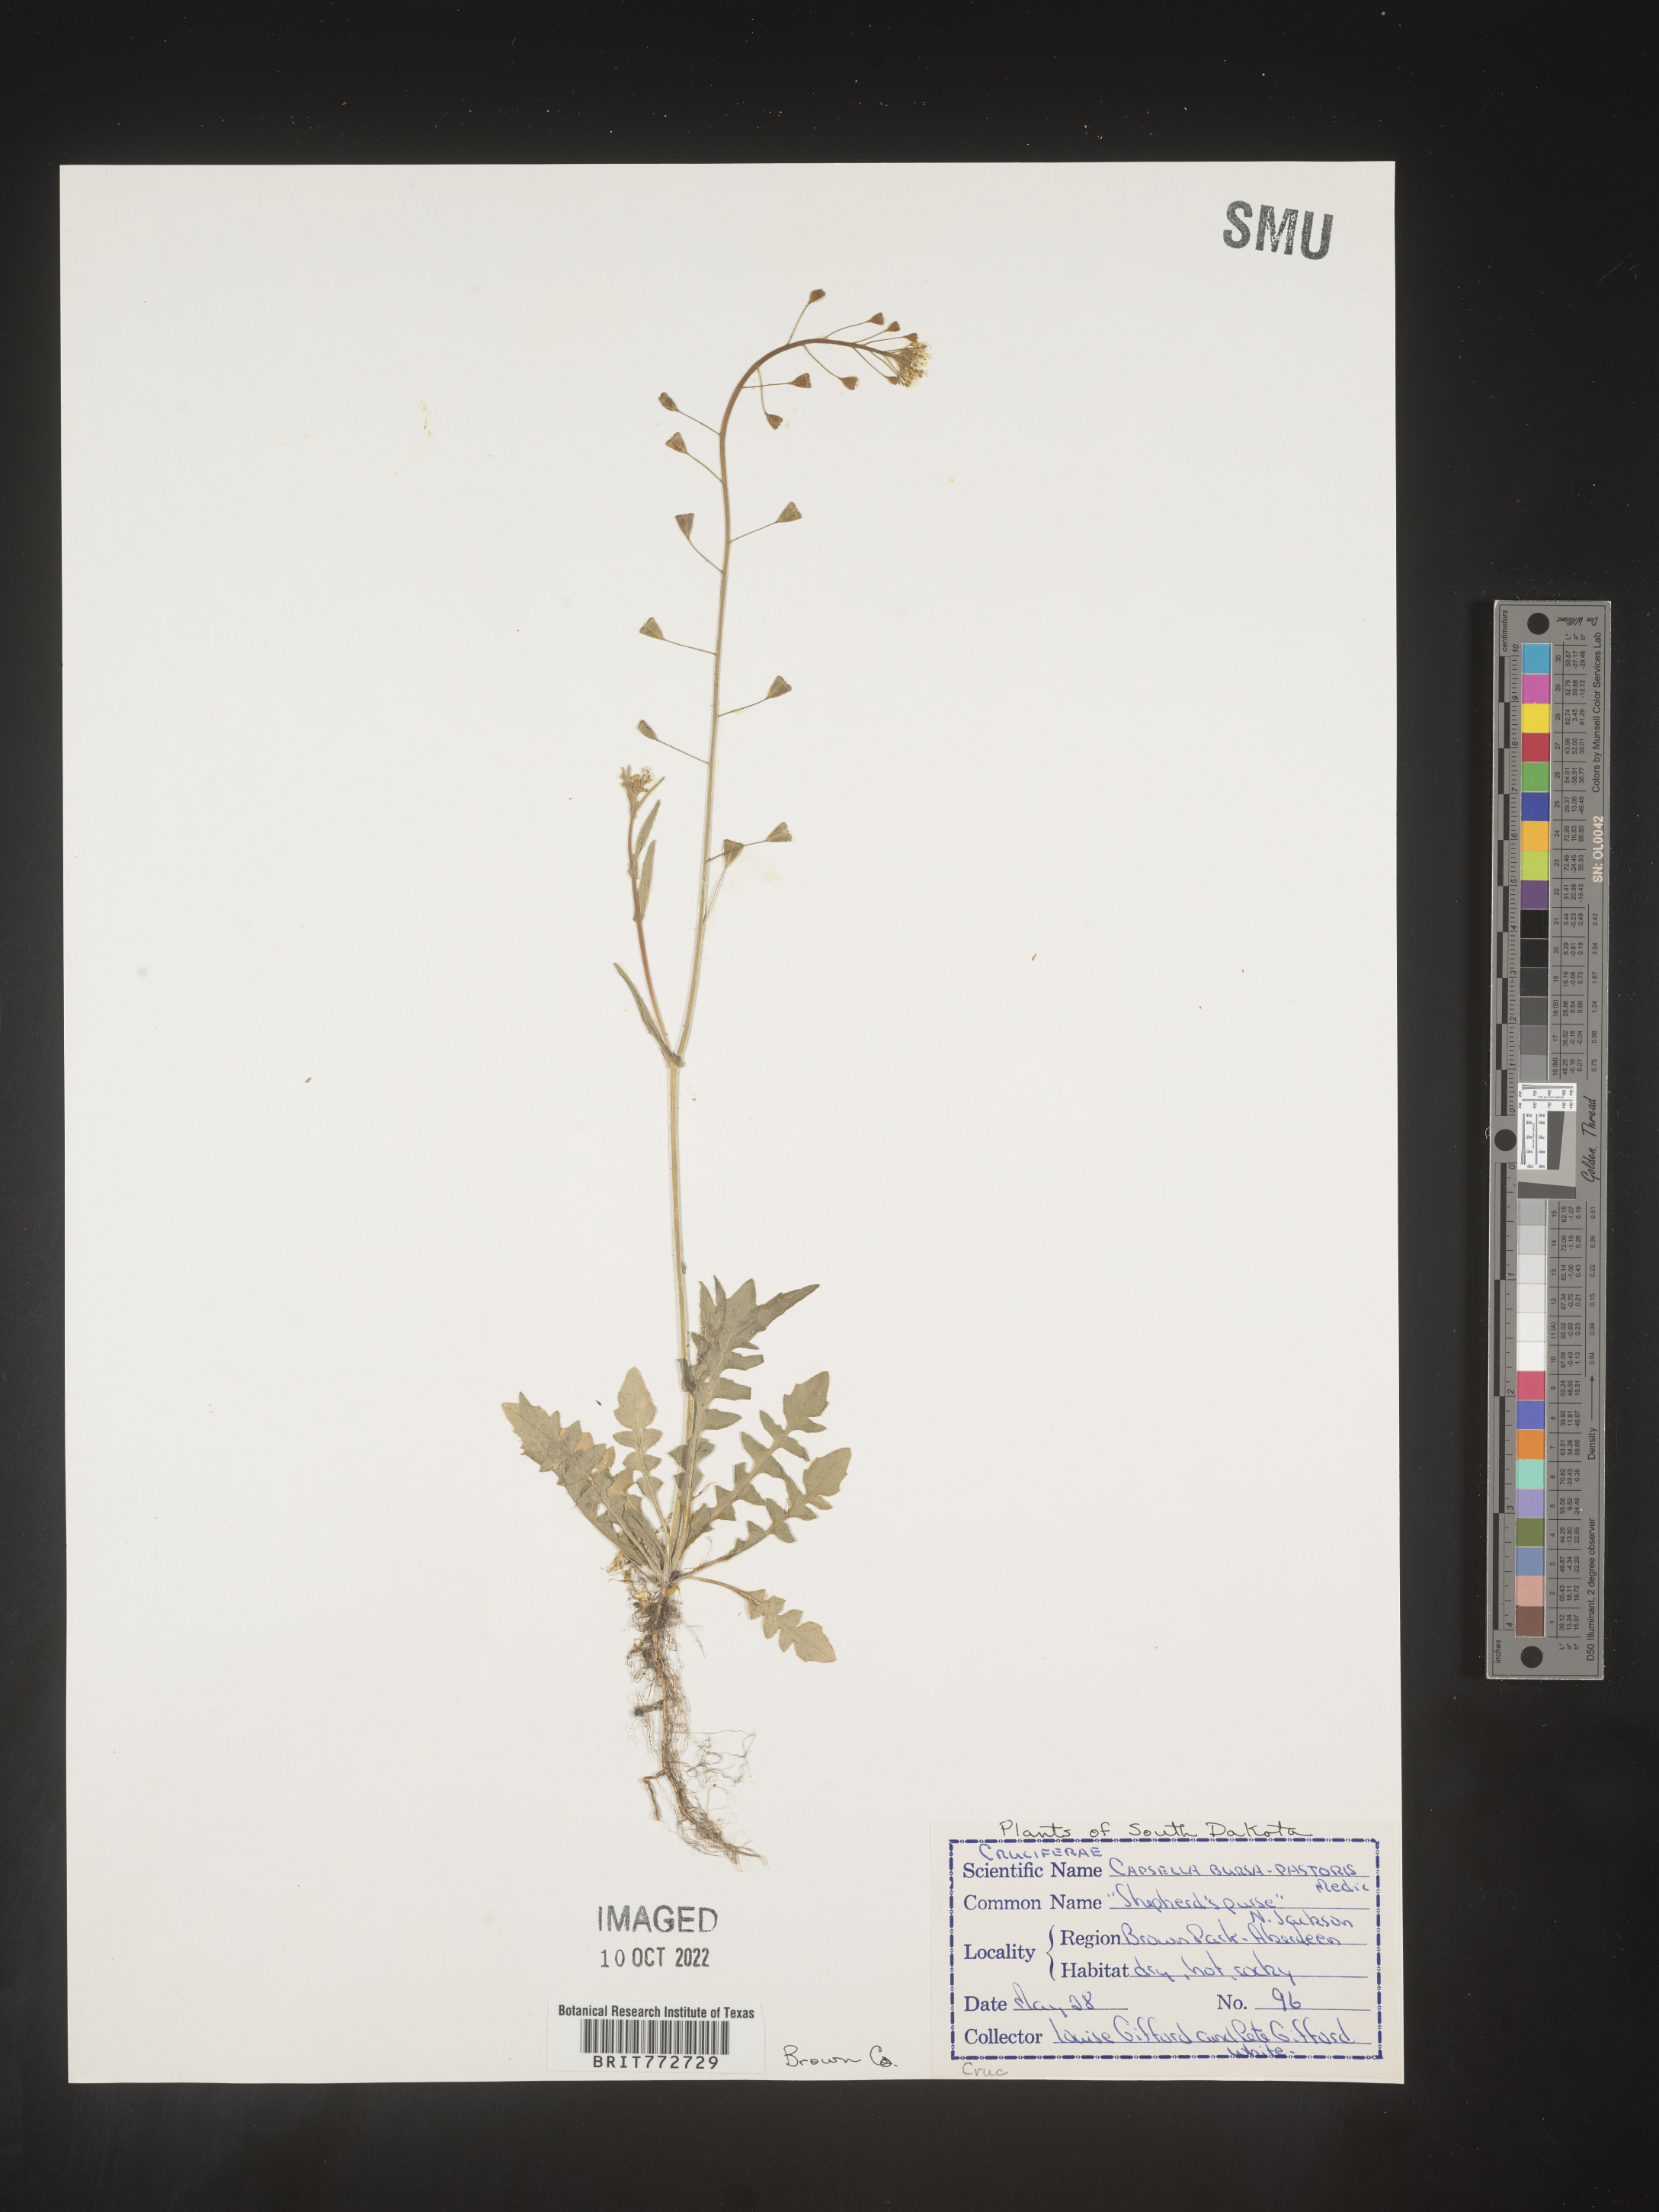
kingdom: Plantae
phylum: Tracheophyta
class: Magnoliopsida
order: Brassicales
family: Brassicaceae
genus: Capsella
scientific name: Capsella bursa-pastoris
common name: Shepherd's purse
